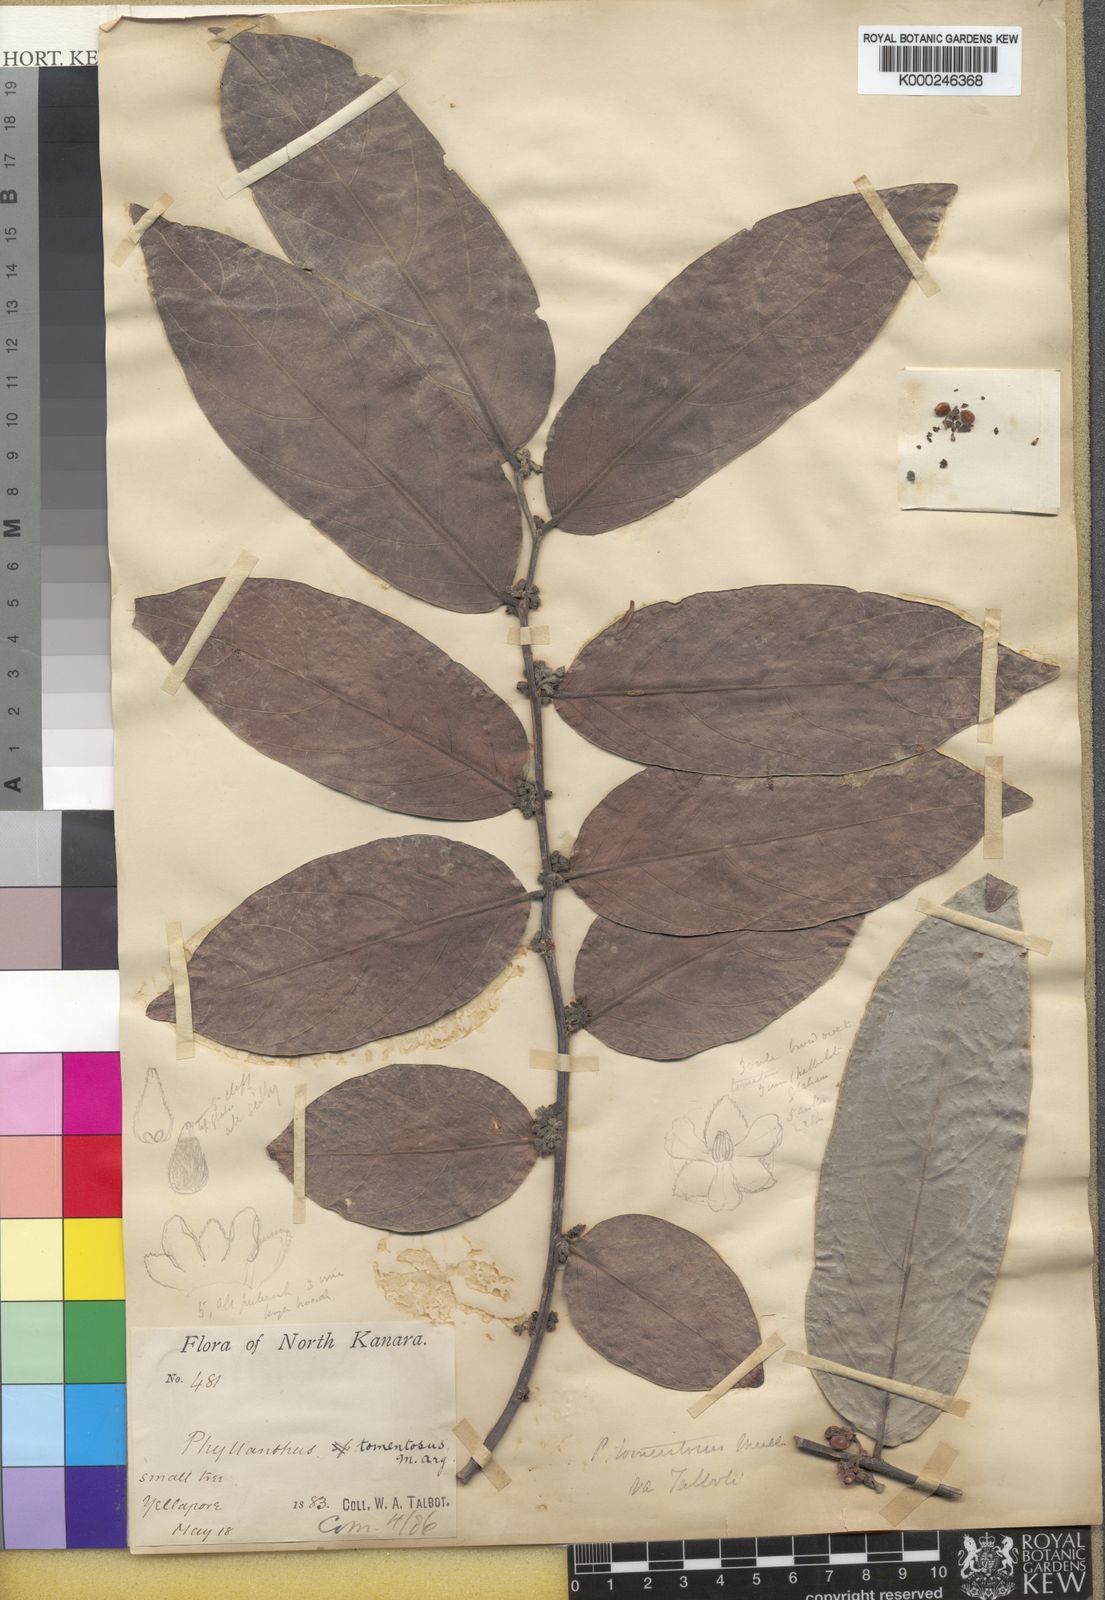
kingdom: Plantae
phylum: Tracheophyta
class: Magnoliopsida
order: Malpighiales
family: Phyllanthaceae
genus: Glochidion
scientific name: Glochidion zeylanicum
